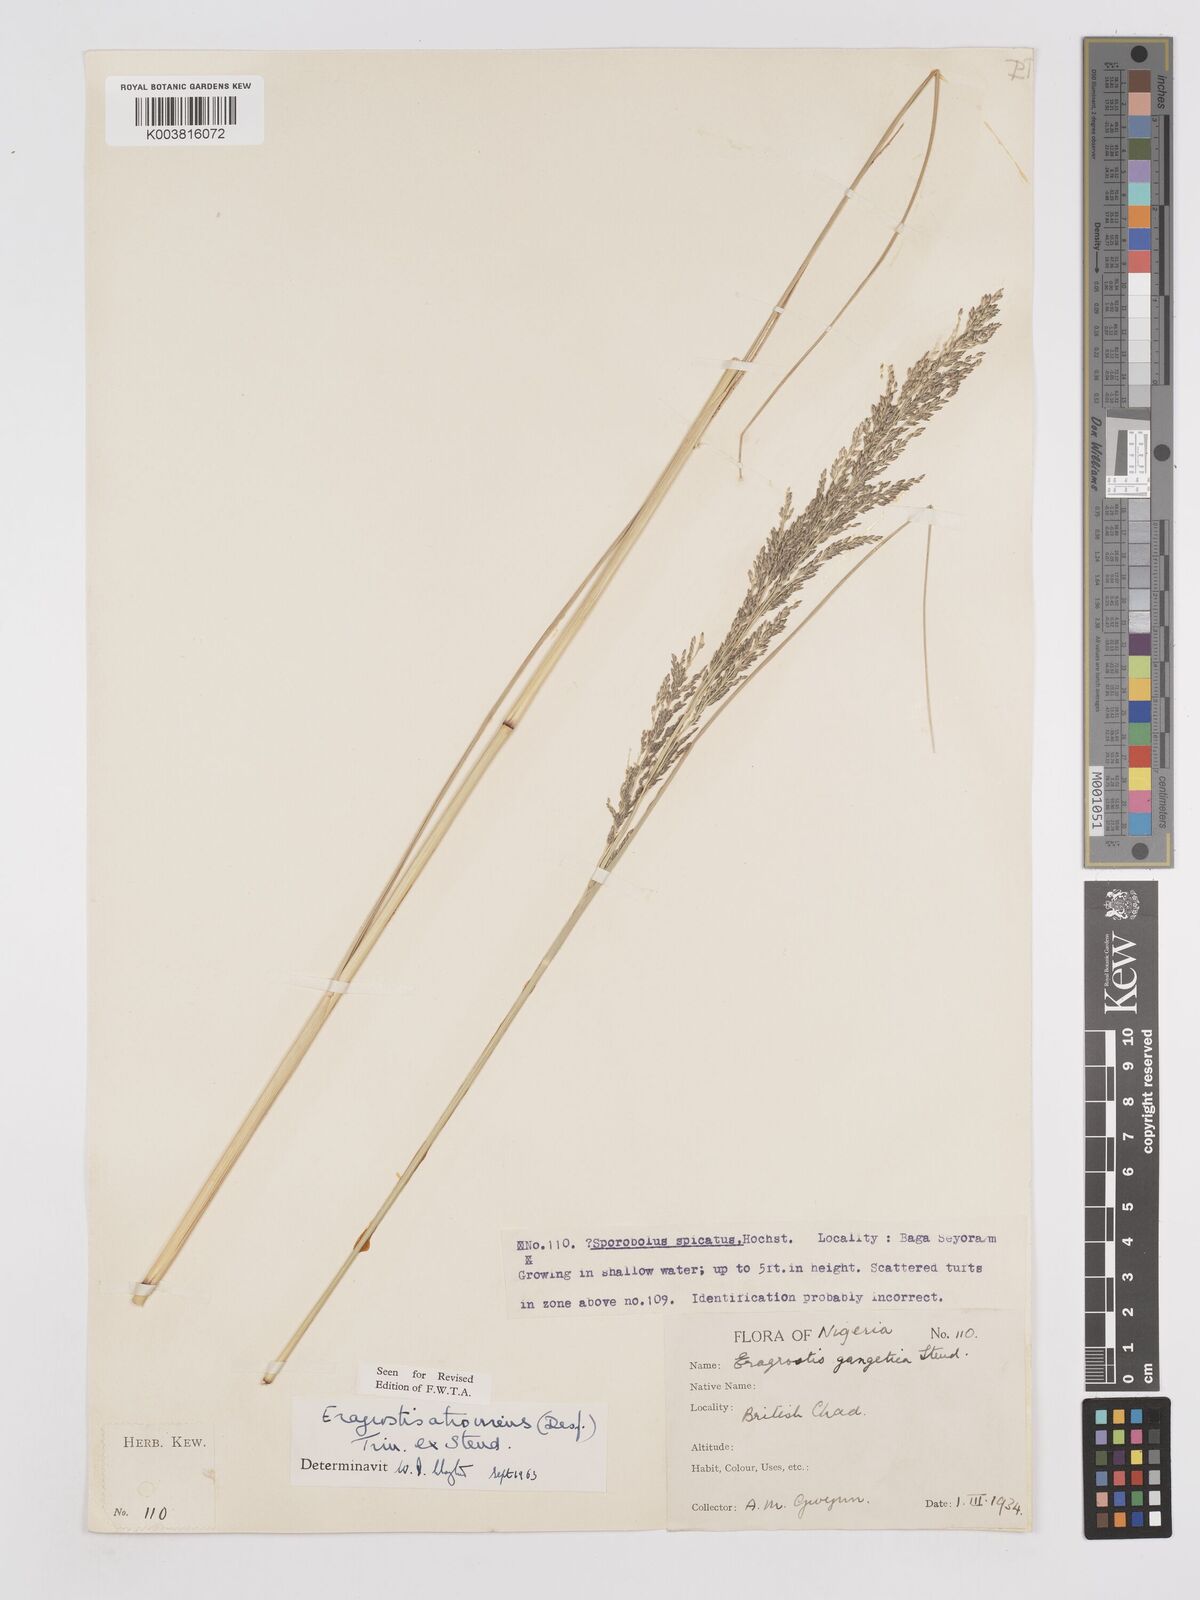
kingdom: Plantae
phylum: Tracheophyta
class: Liliopsida
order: Poales
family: Poaceae
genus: Eragrostis
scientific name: Eragrostis atrovirens
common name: Thalia lovegrass
